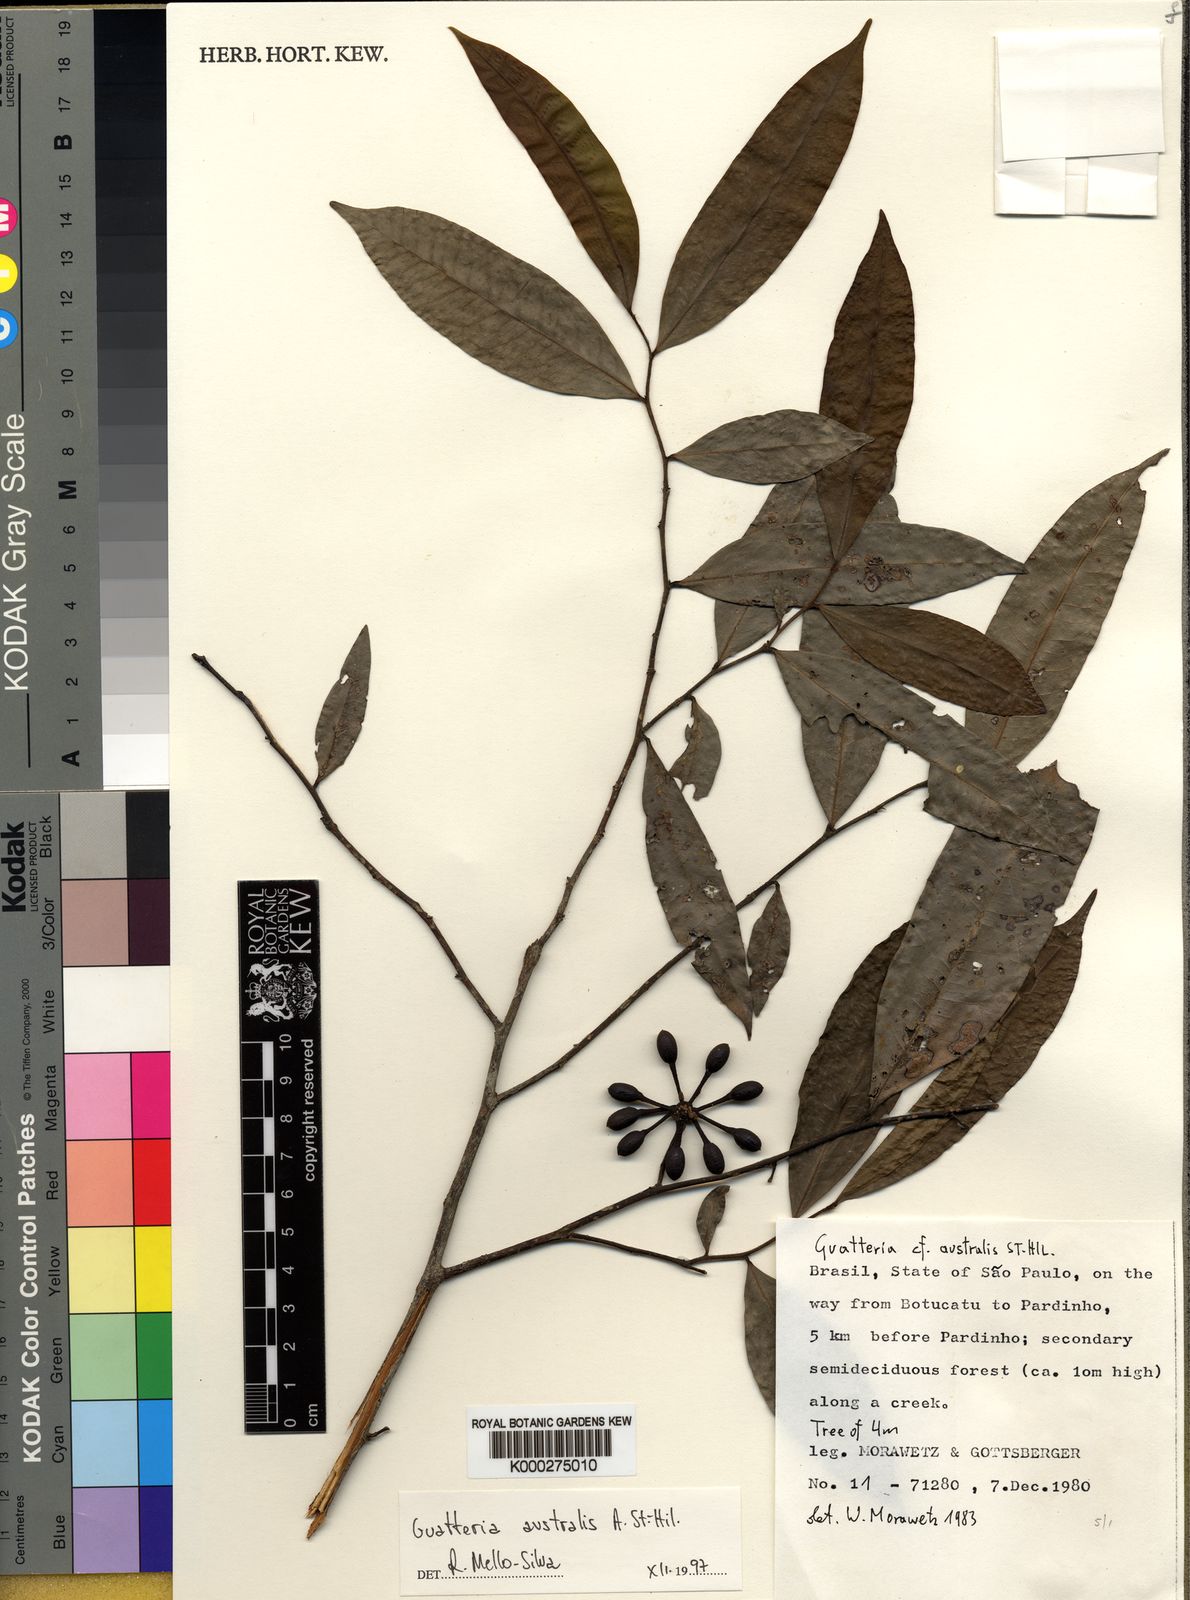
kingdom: Plantae
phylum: Tracheophyta
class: Magnoliopsida
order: Gentianales
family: Rubiaceae
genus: Rudgea
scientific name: Rudgea viburnoides
